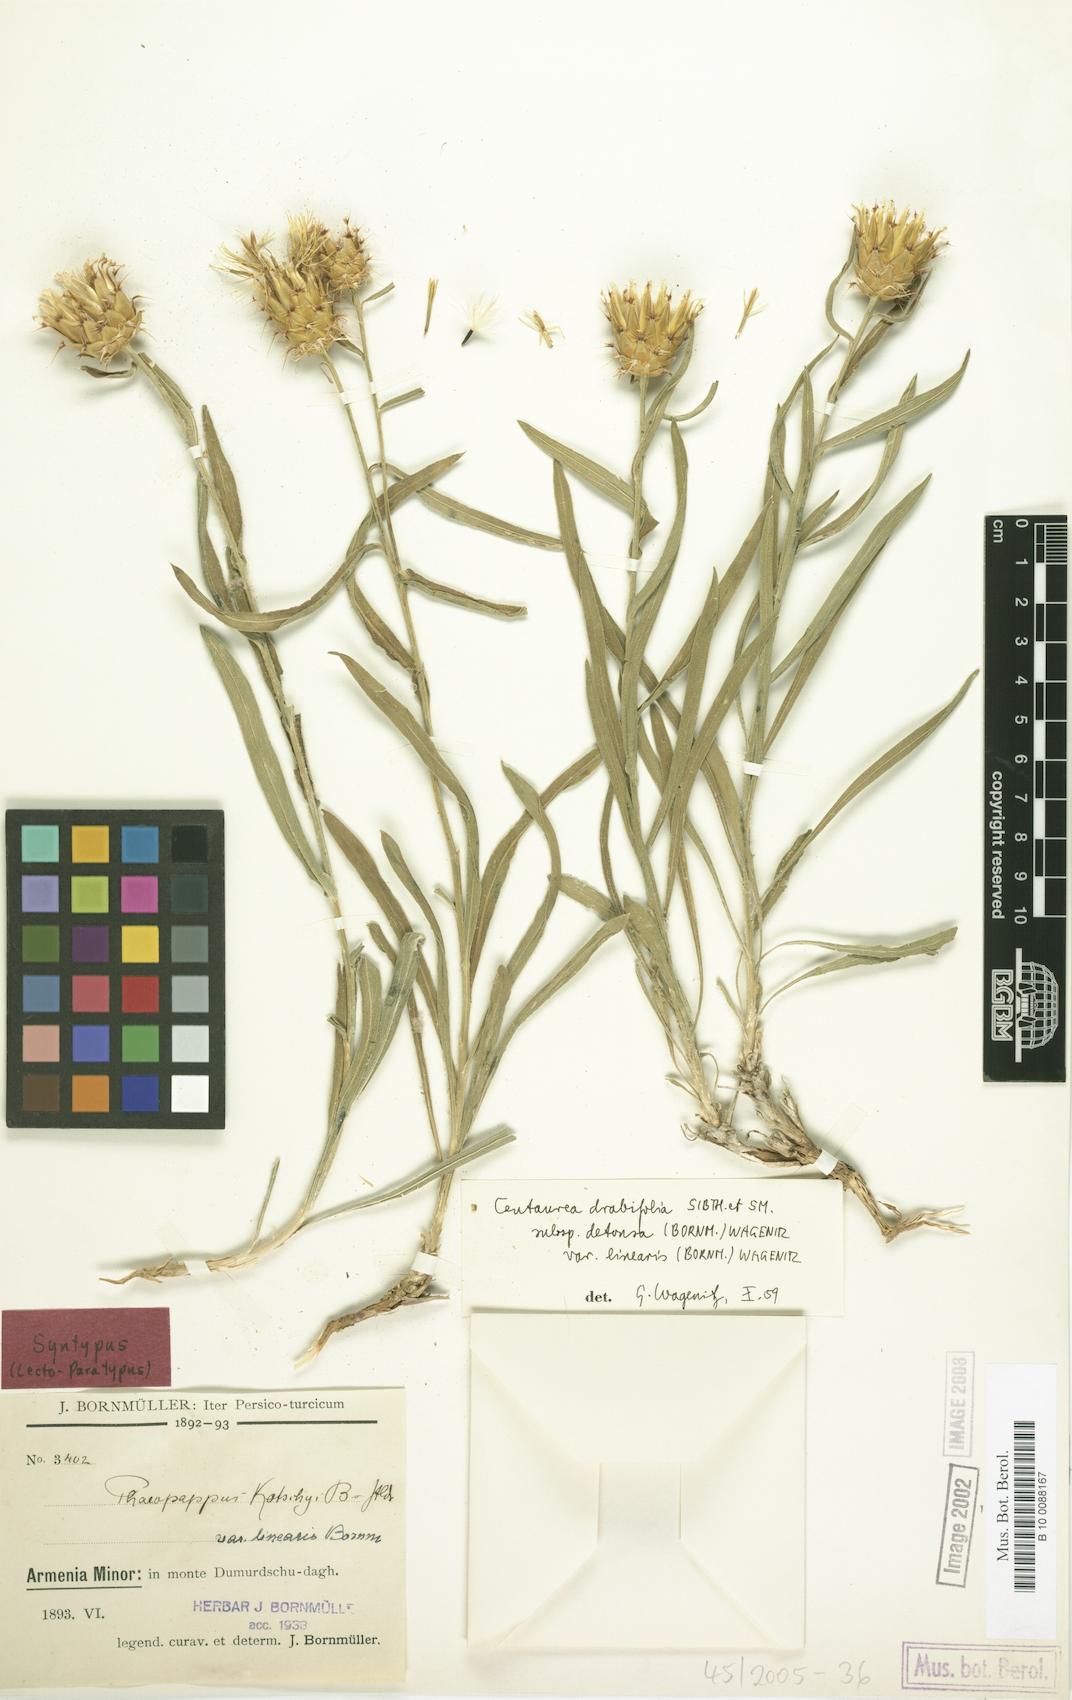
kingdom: Plantae
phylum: Tracheophyta
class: Magnoliopsida
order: Asterales
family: Asteraceae
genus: Centaurea
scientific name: Centaurea kotschyi
